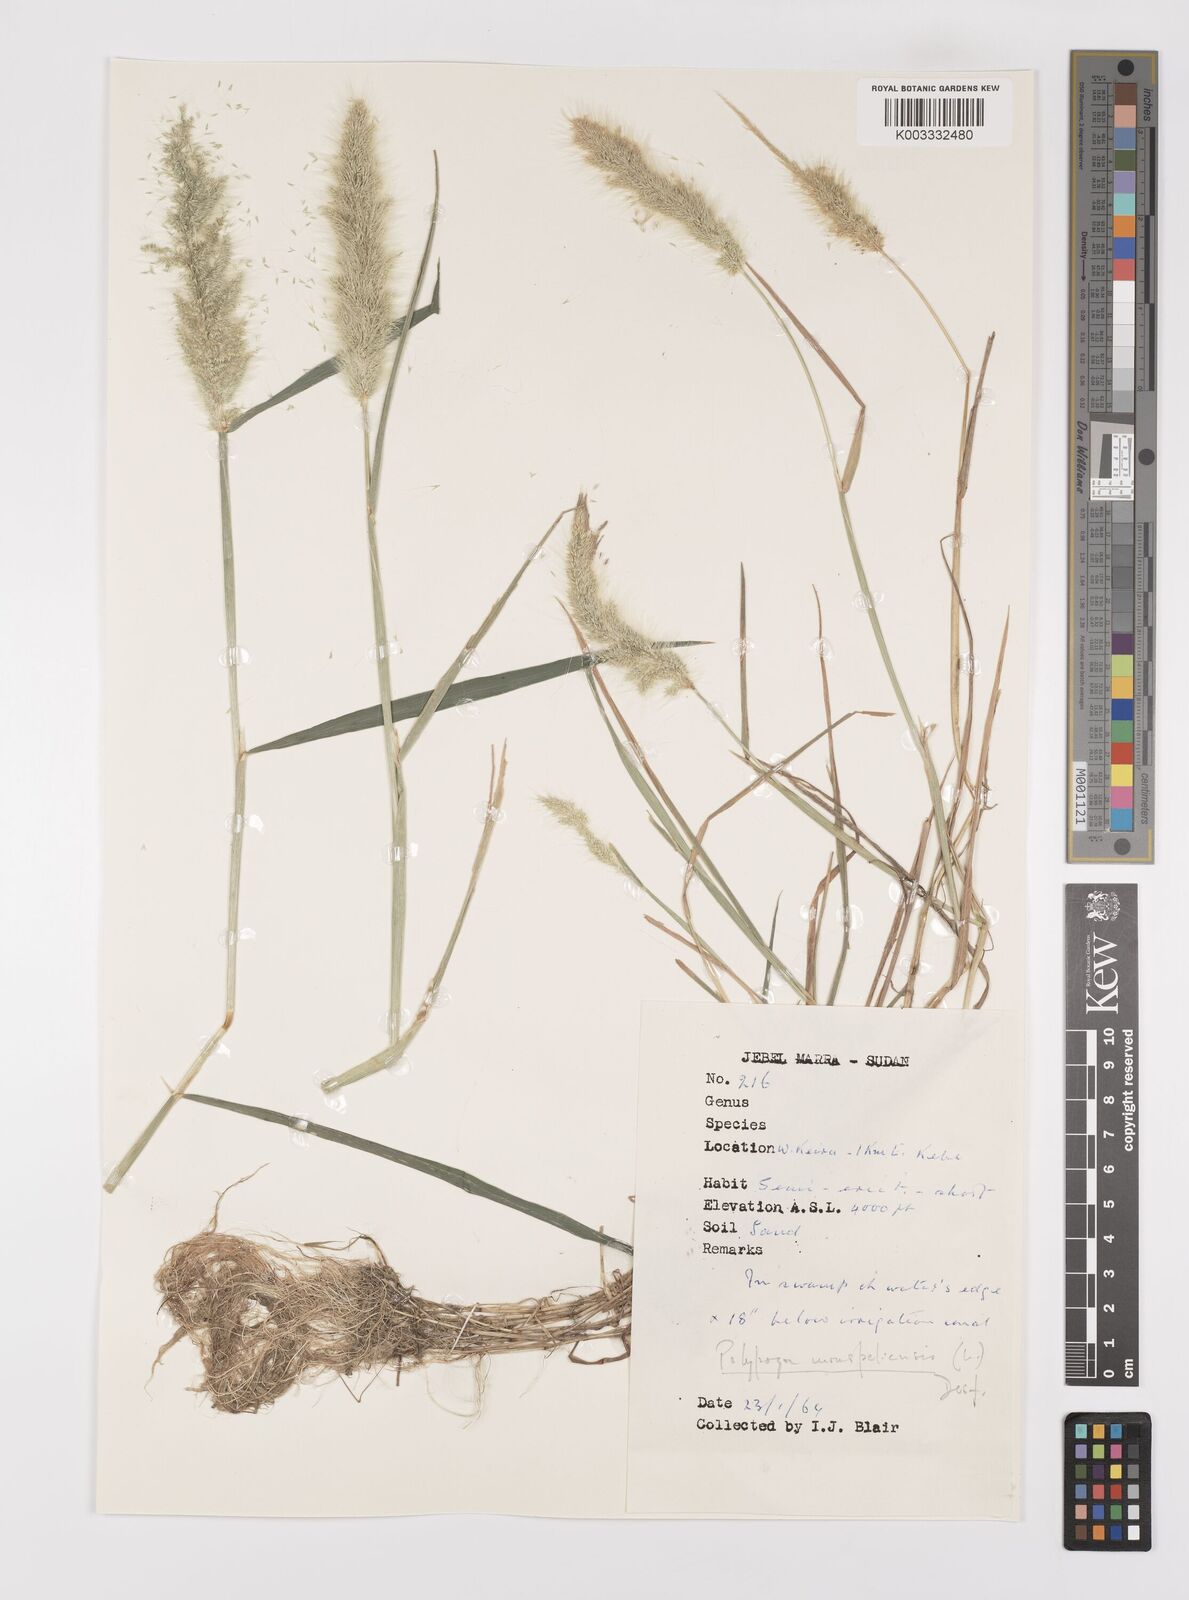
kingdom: Plantae
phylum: Tracheophyta
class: Liliopsida
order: Poales
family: Poaceae
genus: Polypogon
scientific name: Polypogon monspeliensis
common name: Annual rabbitsfoot grass
